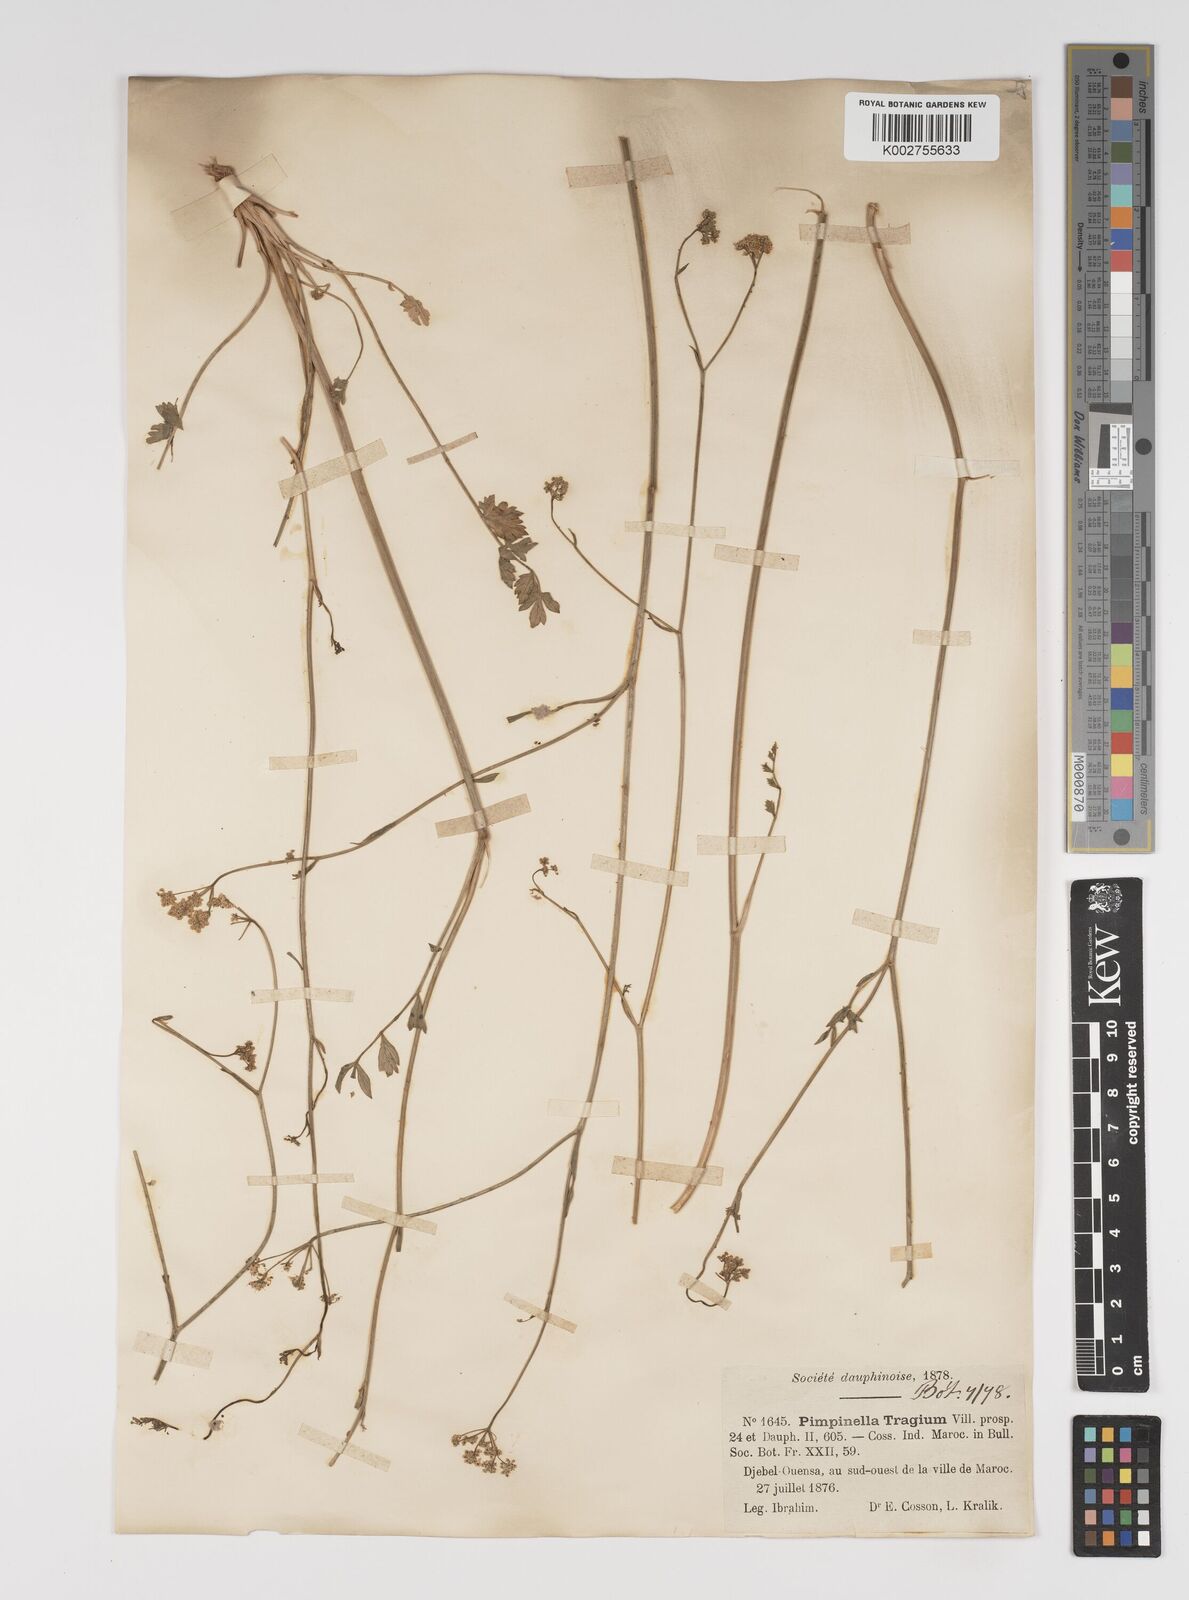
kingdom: Plantae
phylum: Tracheophyta
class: Magnoliopsida
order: Apiales
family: Apiaceae
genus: Pimpinella
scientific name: Pimpinella tragium
